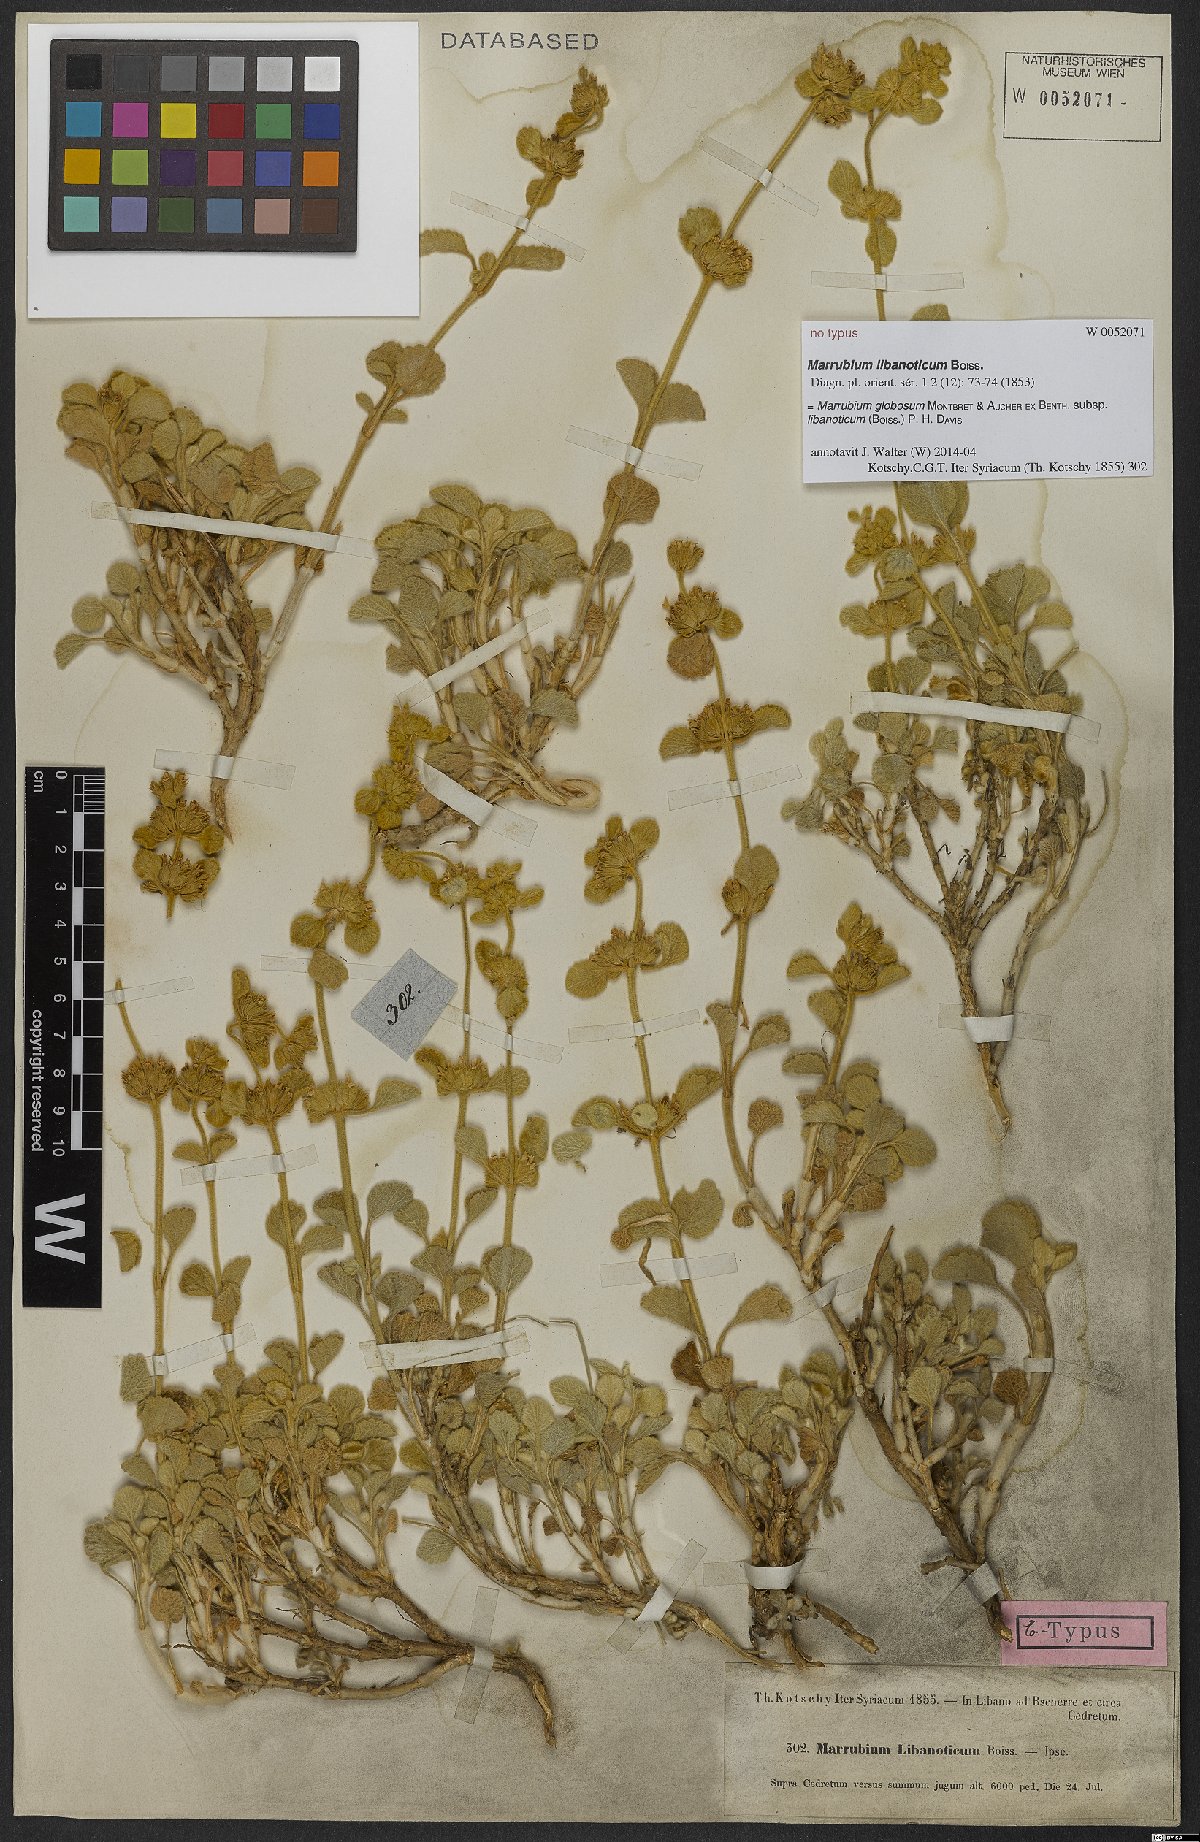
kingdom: Plantae
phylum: Tracheophyta
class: Magnoliopsida
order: Lamiales
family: Lamiaceae
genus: Marrubium
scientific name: Marrubium globosum
